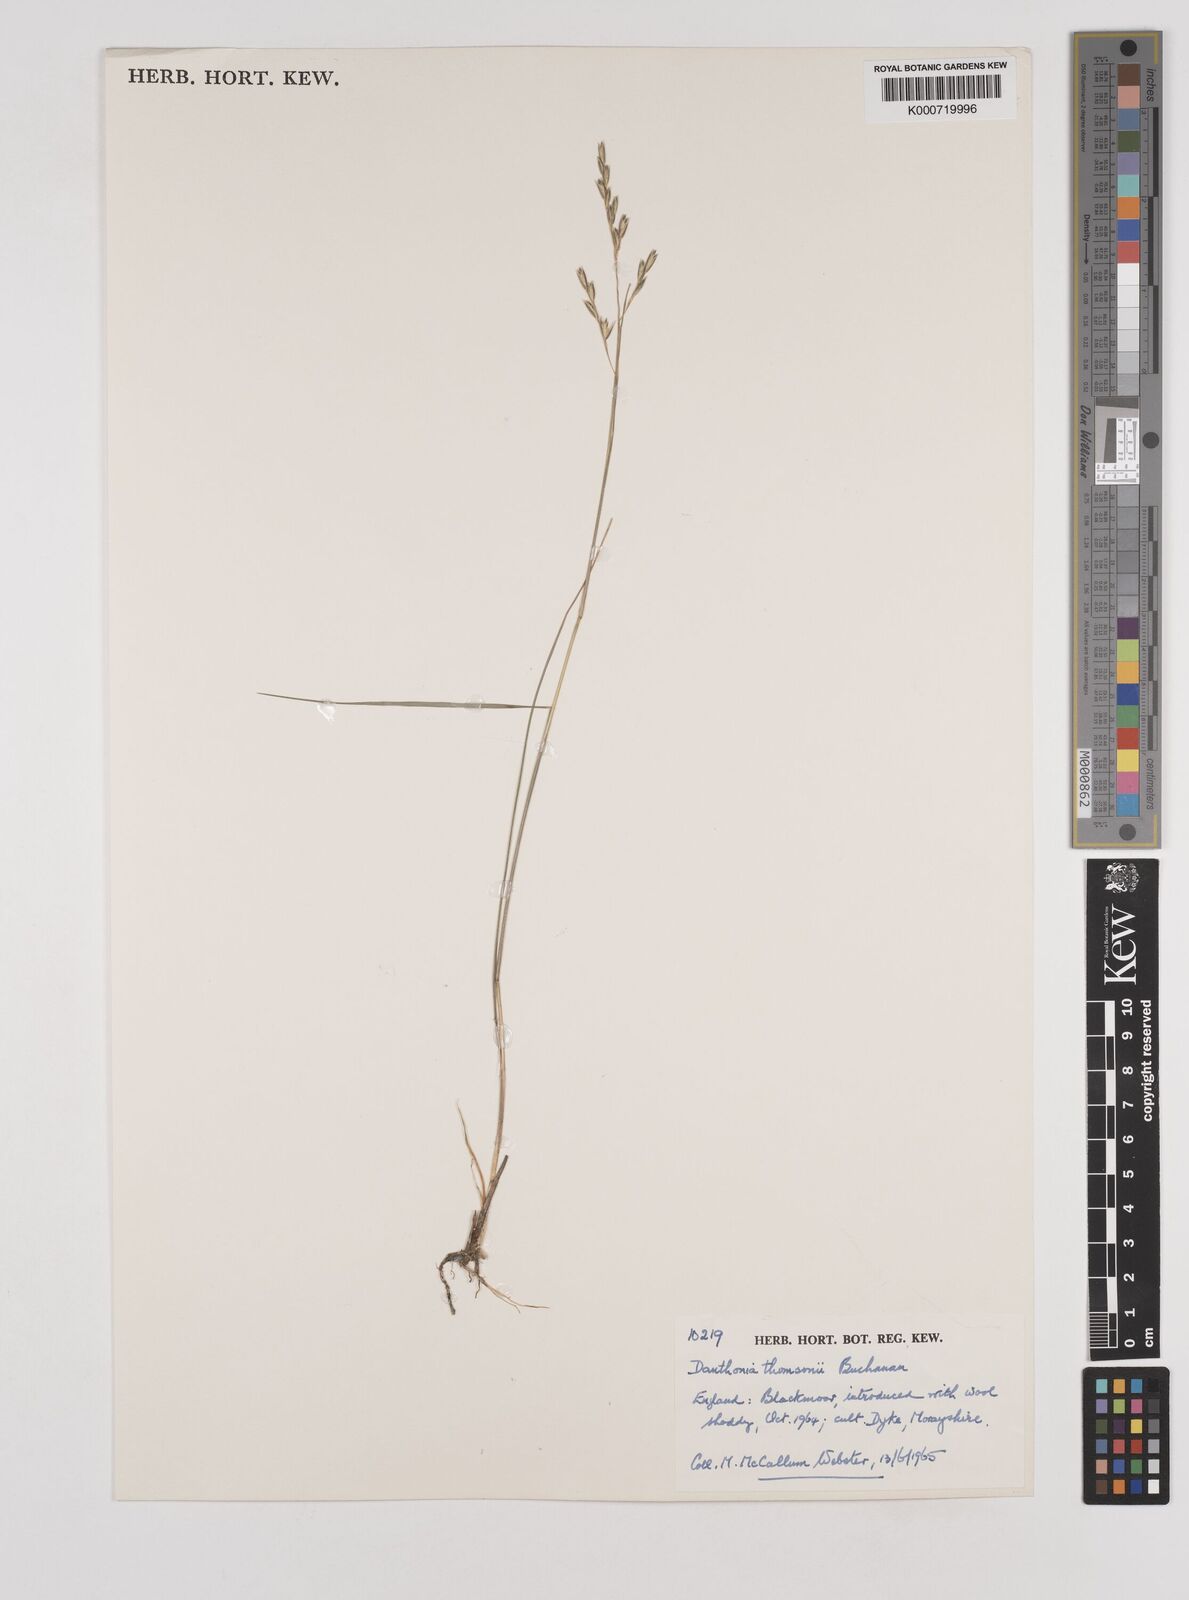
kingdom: Plantae
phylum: Tracheophyta
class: Liliopsida
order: Poales
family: Poaceae
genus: Rytidosperma
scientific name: Rytidosperma thomsonii
